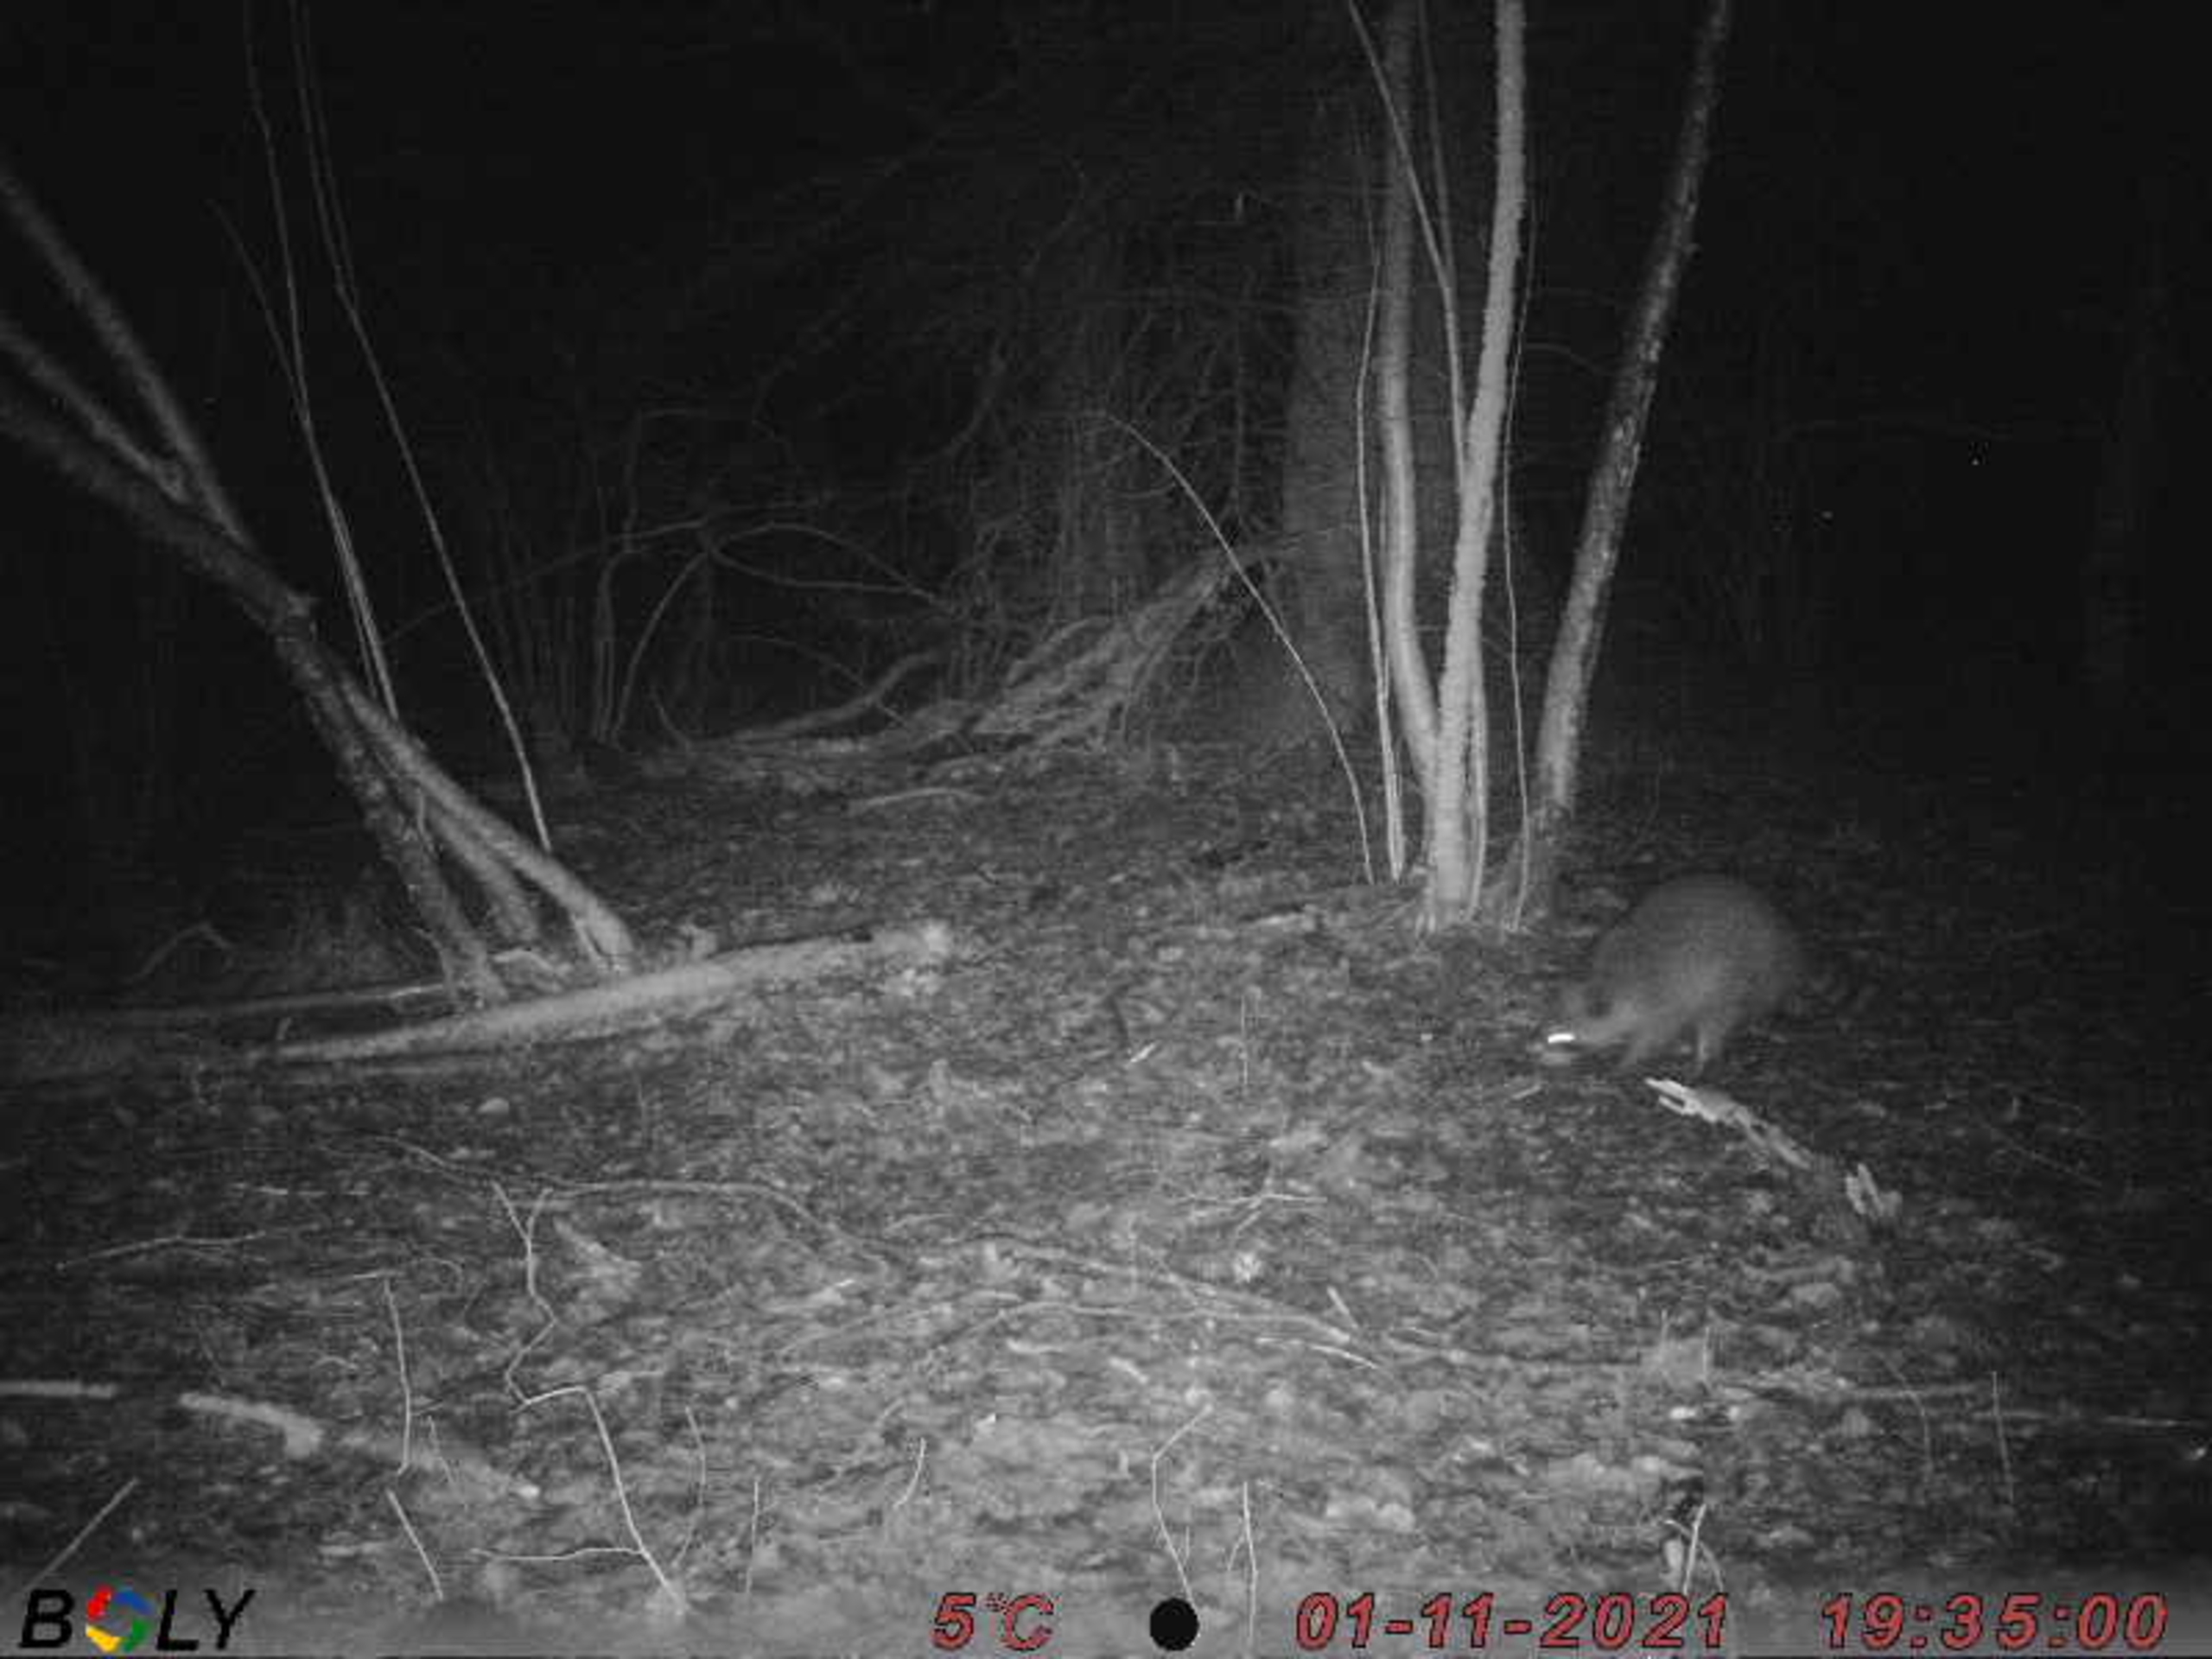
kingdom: Animalia
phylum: Chordata
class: Mammalia
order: Carnivora
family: Procyonidae
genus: Procyon
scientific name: Procyon lotor
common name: Vaskebjørn
